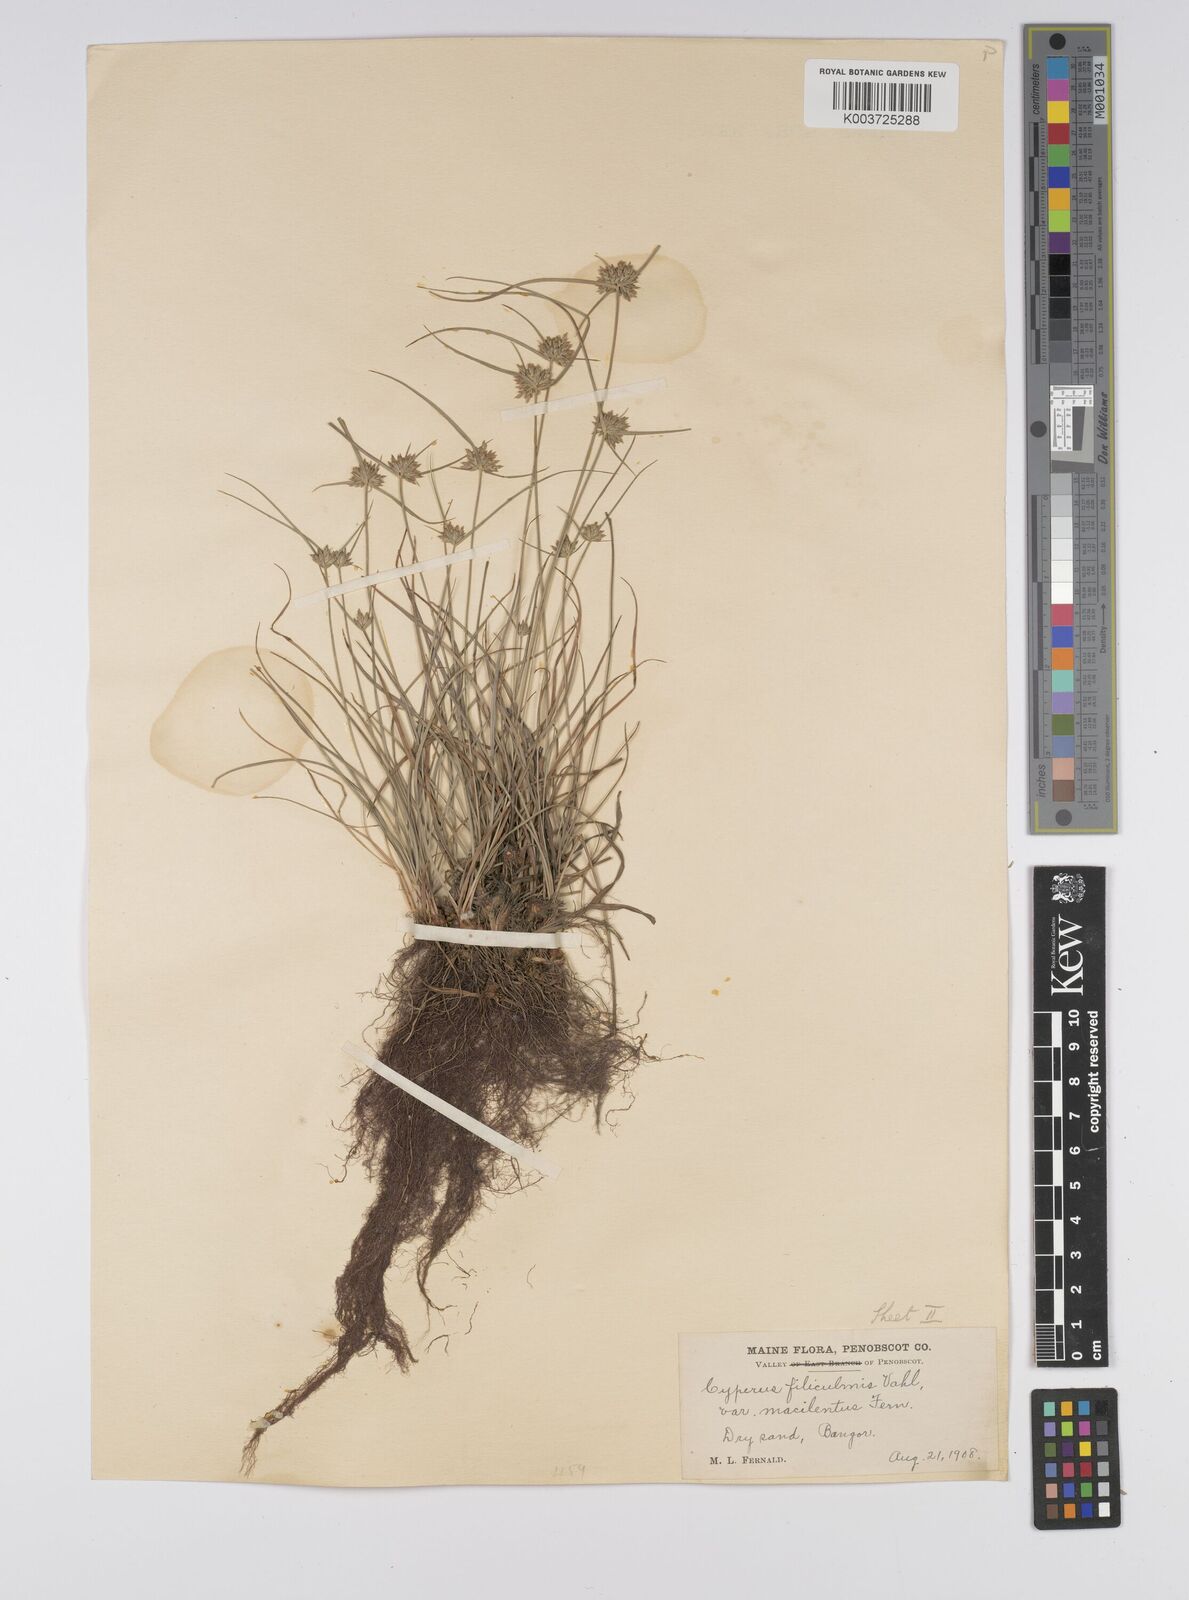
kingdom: Plantae
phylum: Tracheophyta
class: Liliopsida
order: Poales
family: Cyperaceae
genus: Cyperus
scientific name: Cyperus lupulinus
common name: Great plains flatsedge
